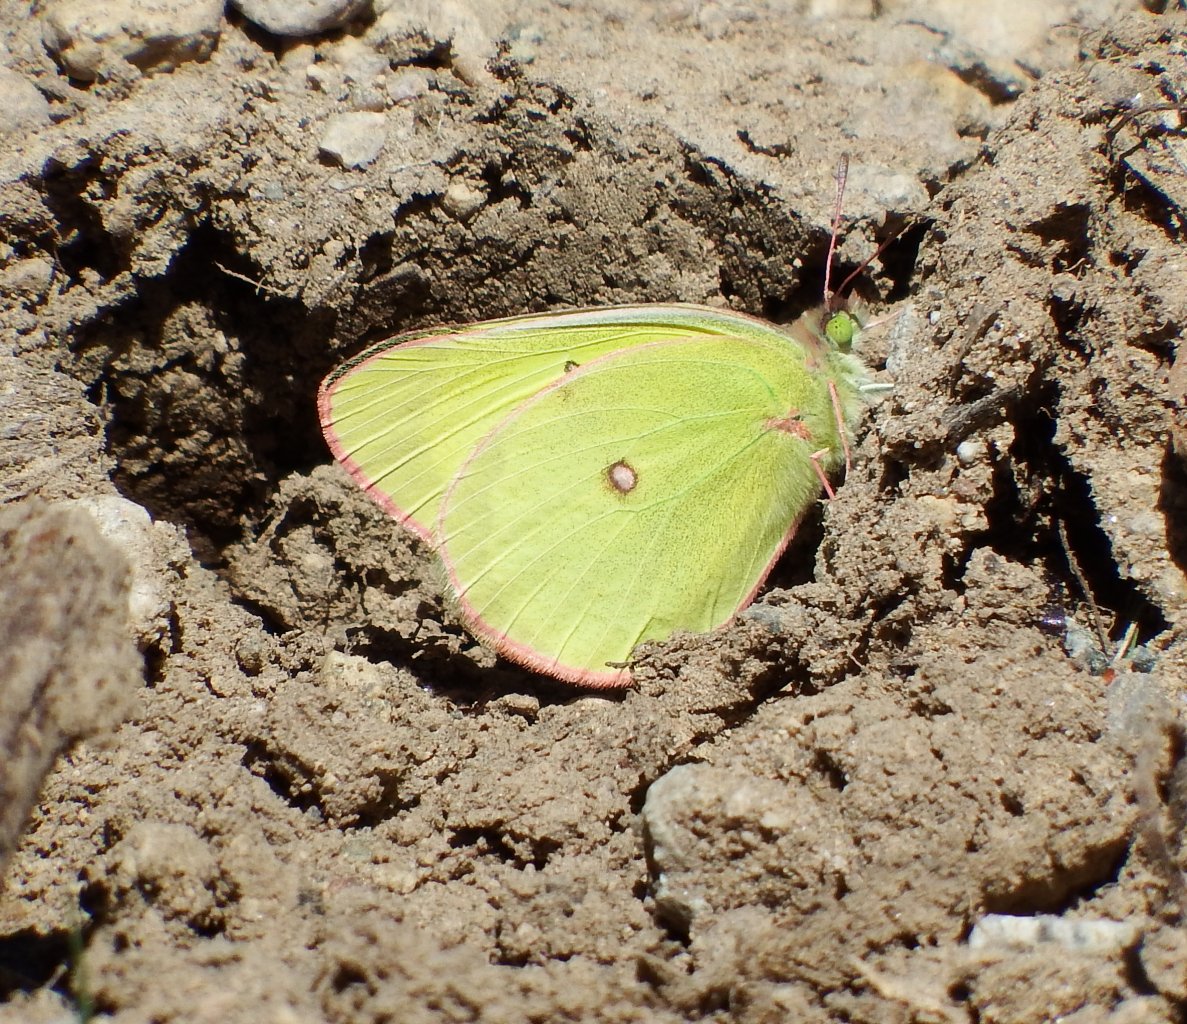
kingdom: Animalia
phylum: Arthropoda
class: Insecta
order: Lepidoptera
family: Pieridae
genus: Colias
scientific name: Colias interior
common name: Pink-edged Sulphur
